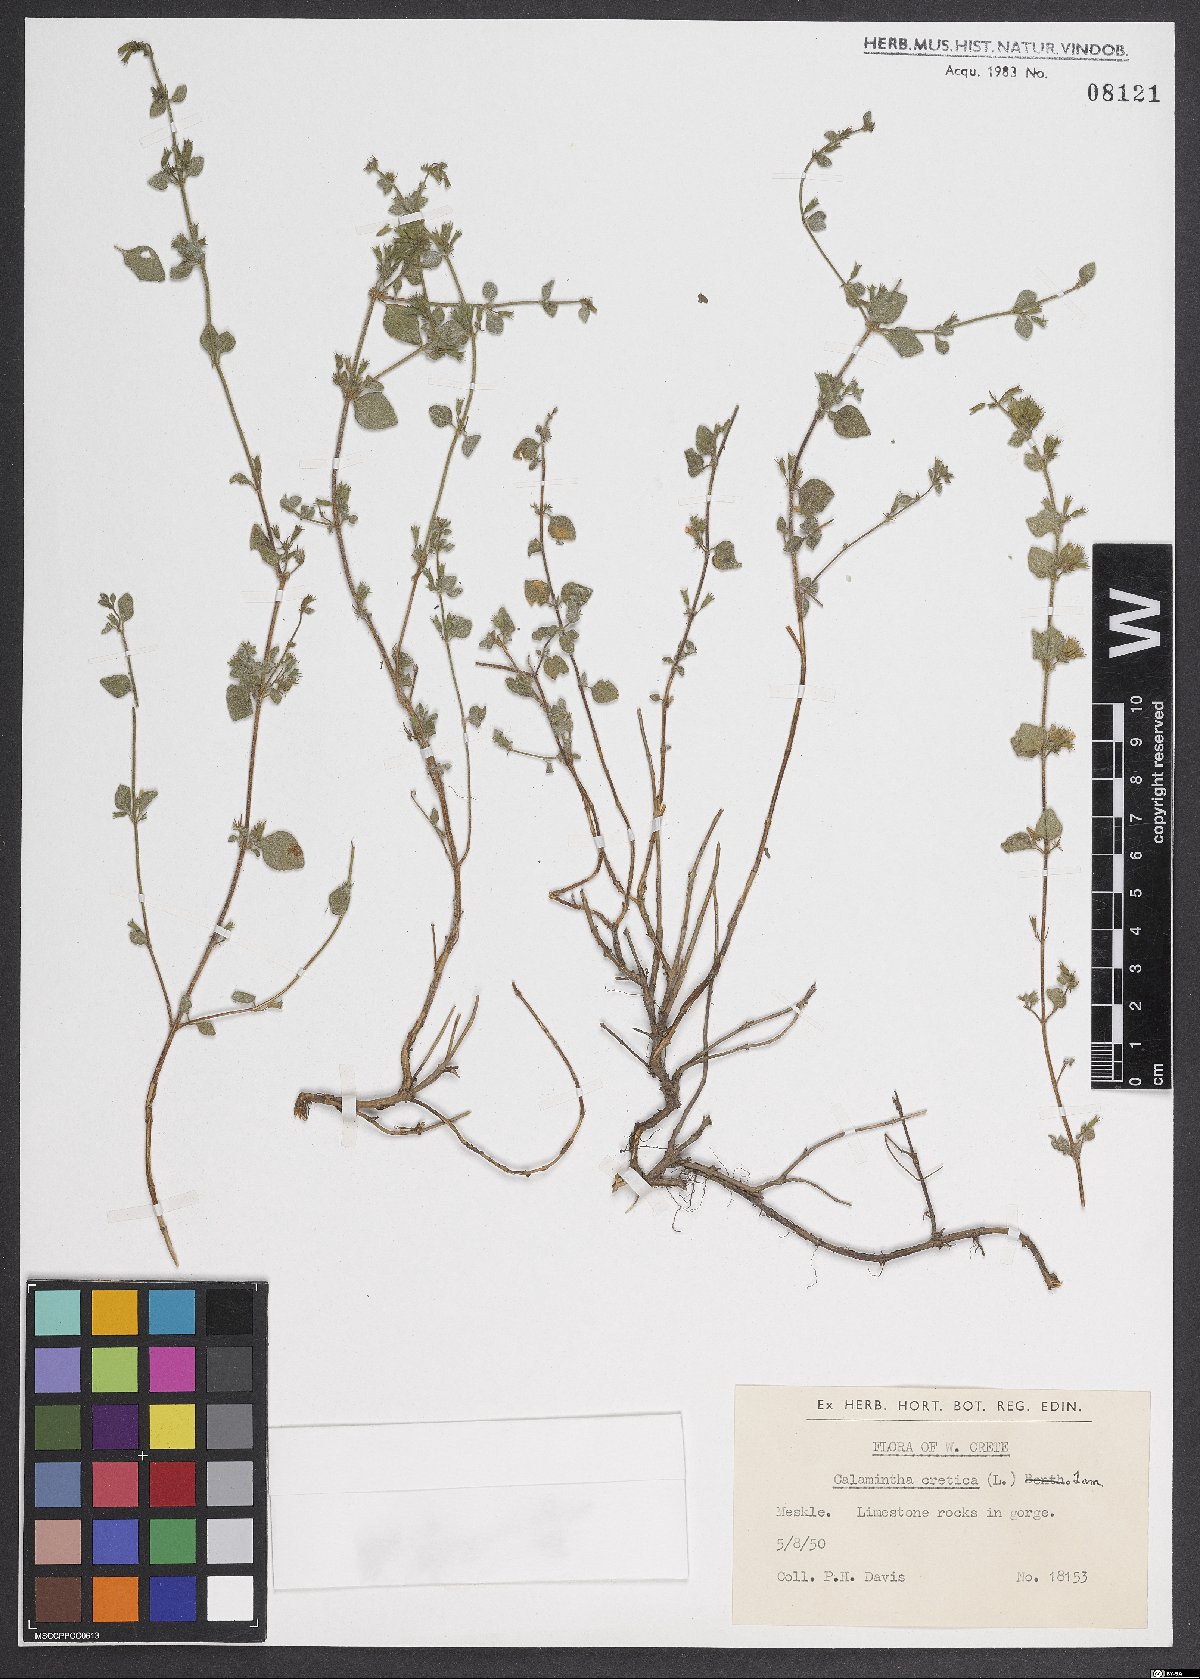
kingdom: Plantae
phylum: Tracheophyta
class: Magnoliopsida
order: Lamiales
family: Lamiaceae
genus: Clinopodium
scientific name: Clinopodium creticum
